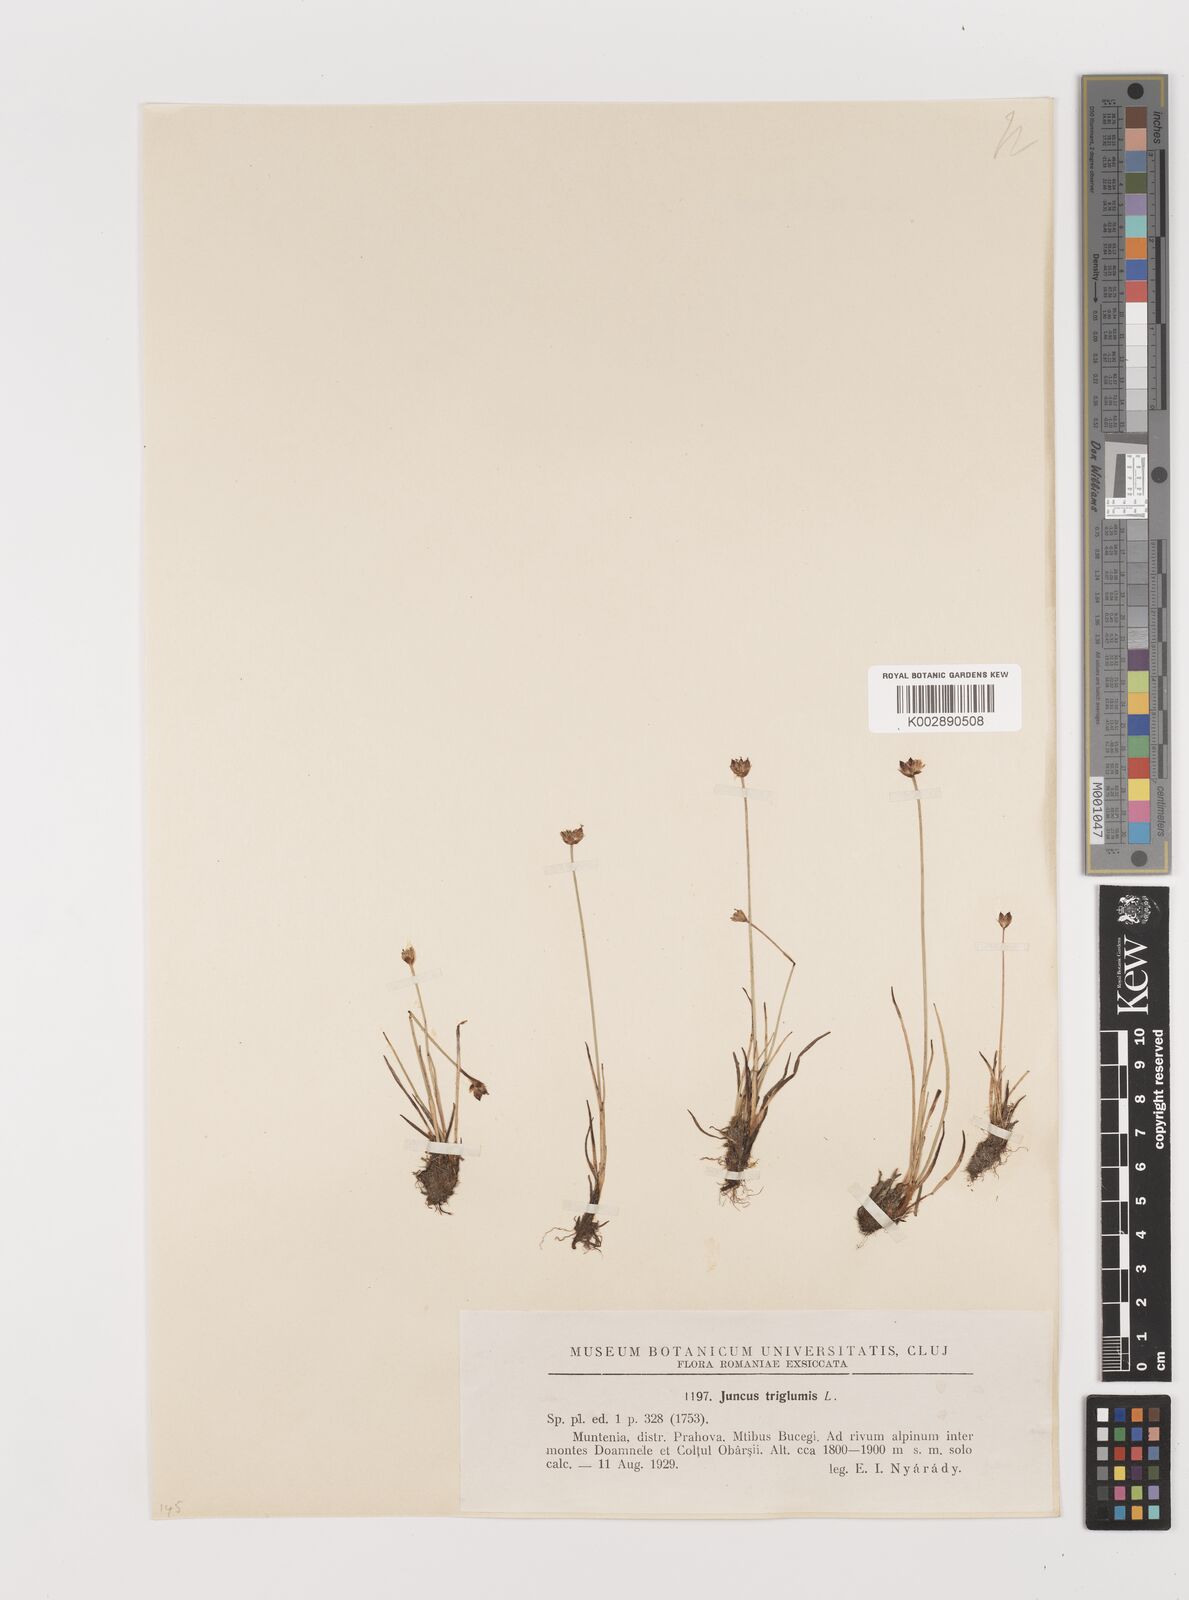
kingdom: Plantae
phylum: Tracheophyta
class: Liliopsida
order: Poales
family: Juncaceae
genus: Juncus
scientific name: Juncus triglumis
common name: Three-flowered rush
